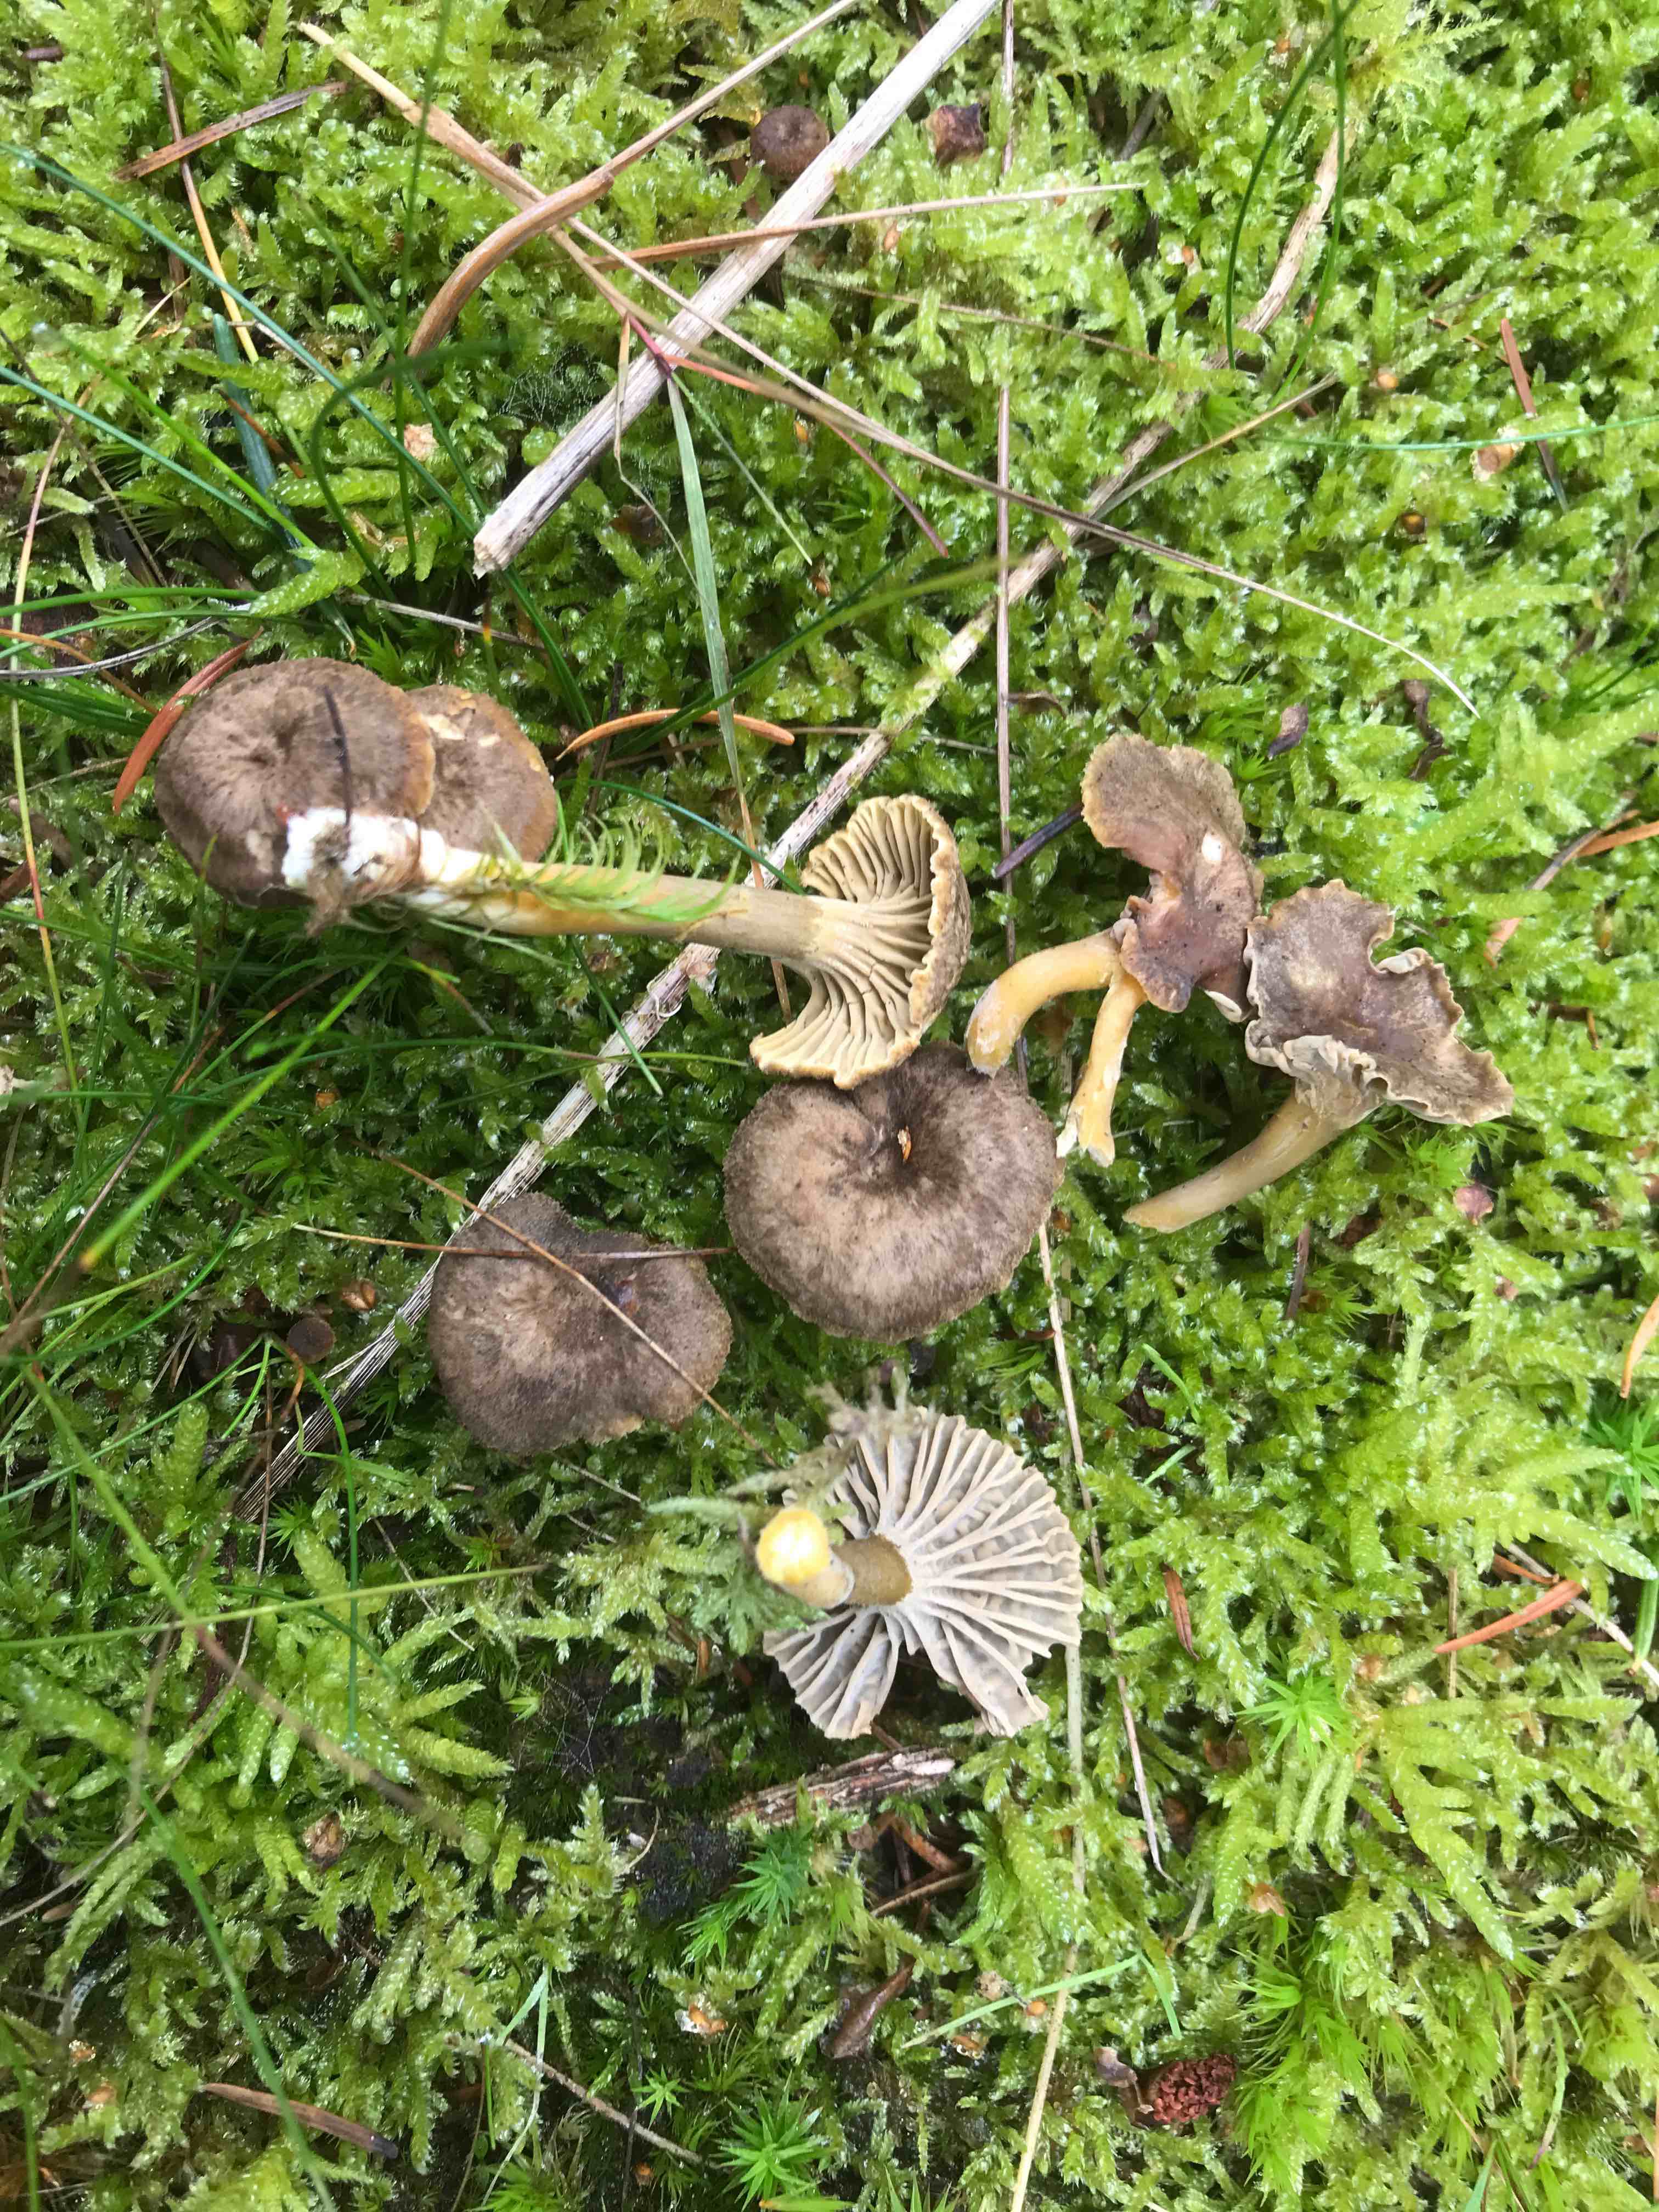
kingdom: Fungi
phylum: Basidiomycota
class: Agaricomycetes
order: Cantharellales
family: Hydnaceae
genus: Craterellus
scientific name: Craterellus tubaeformis
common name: tragt-kantarel
